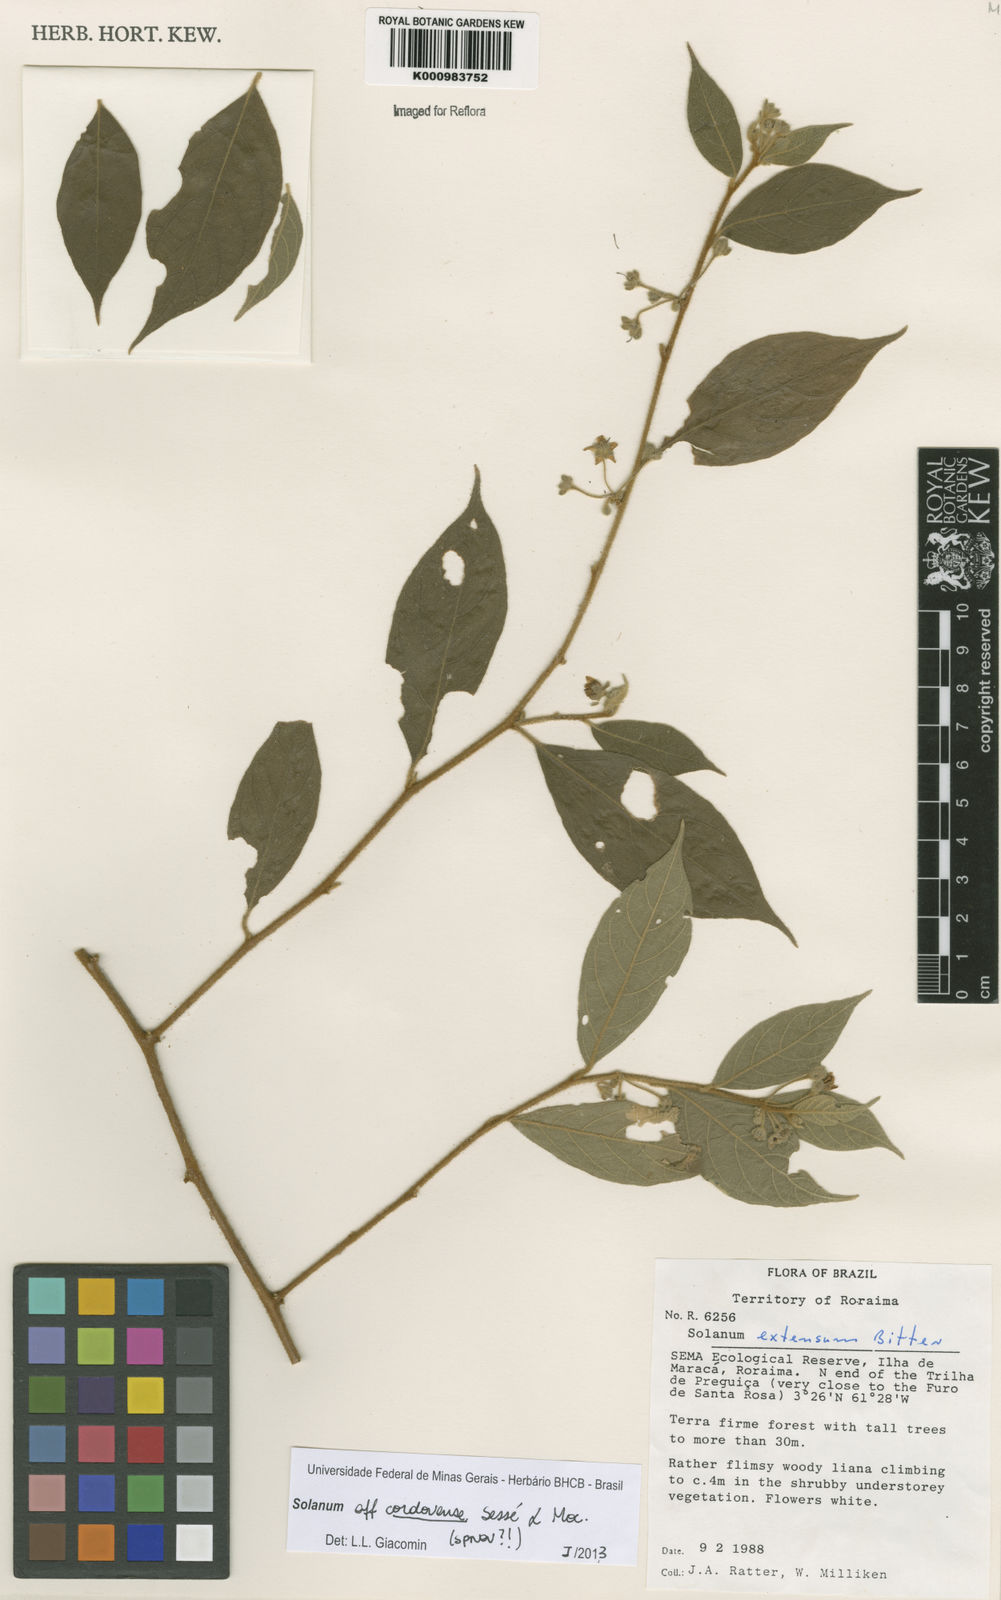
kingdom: Plantae
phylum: Tracheophyta
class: Magnoliopsida
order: Solanales
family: Solanaceae
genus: Solanum
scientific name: Solanum
